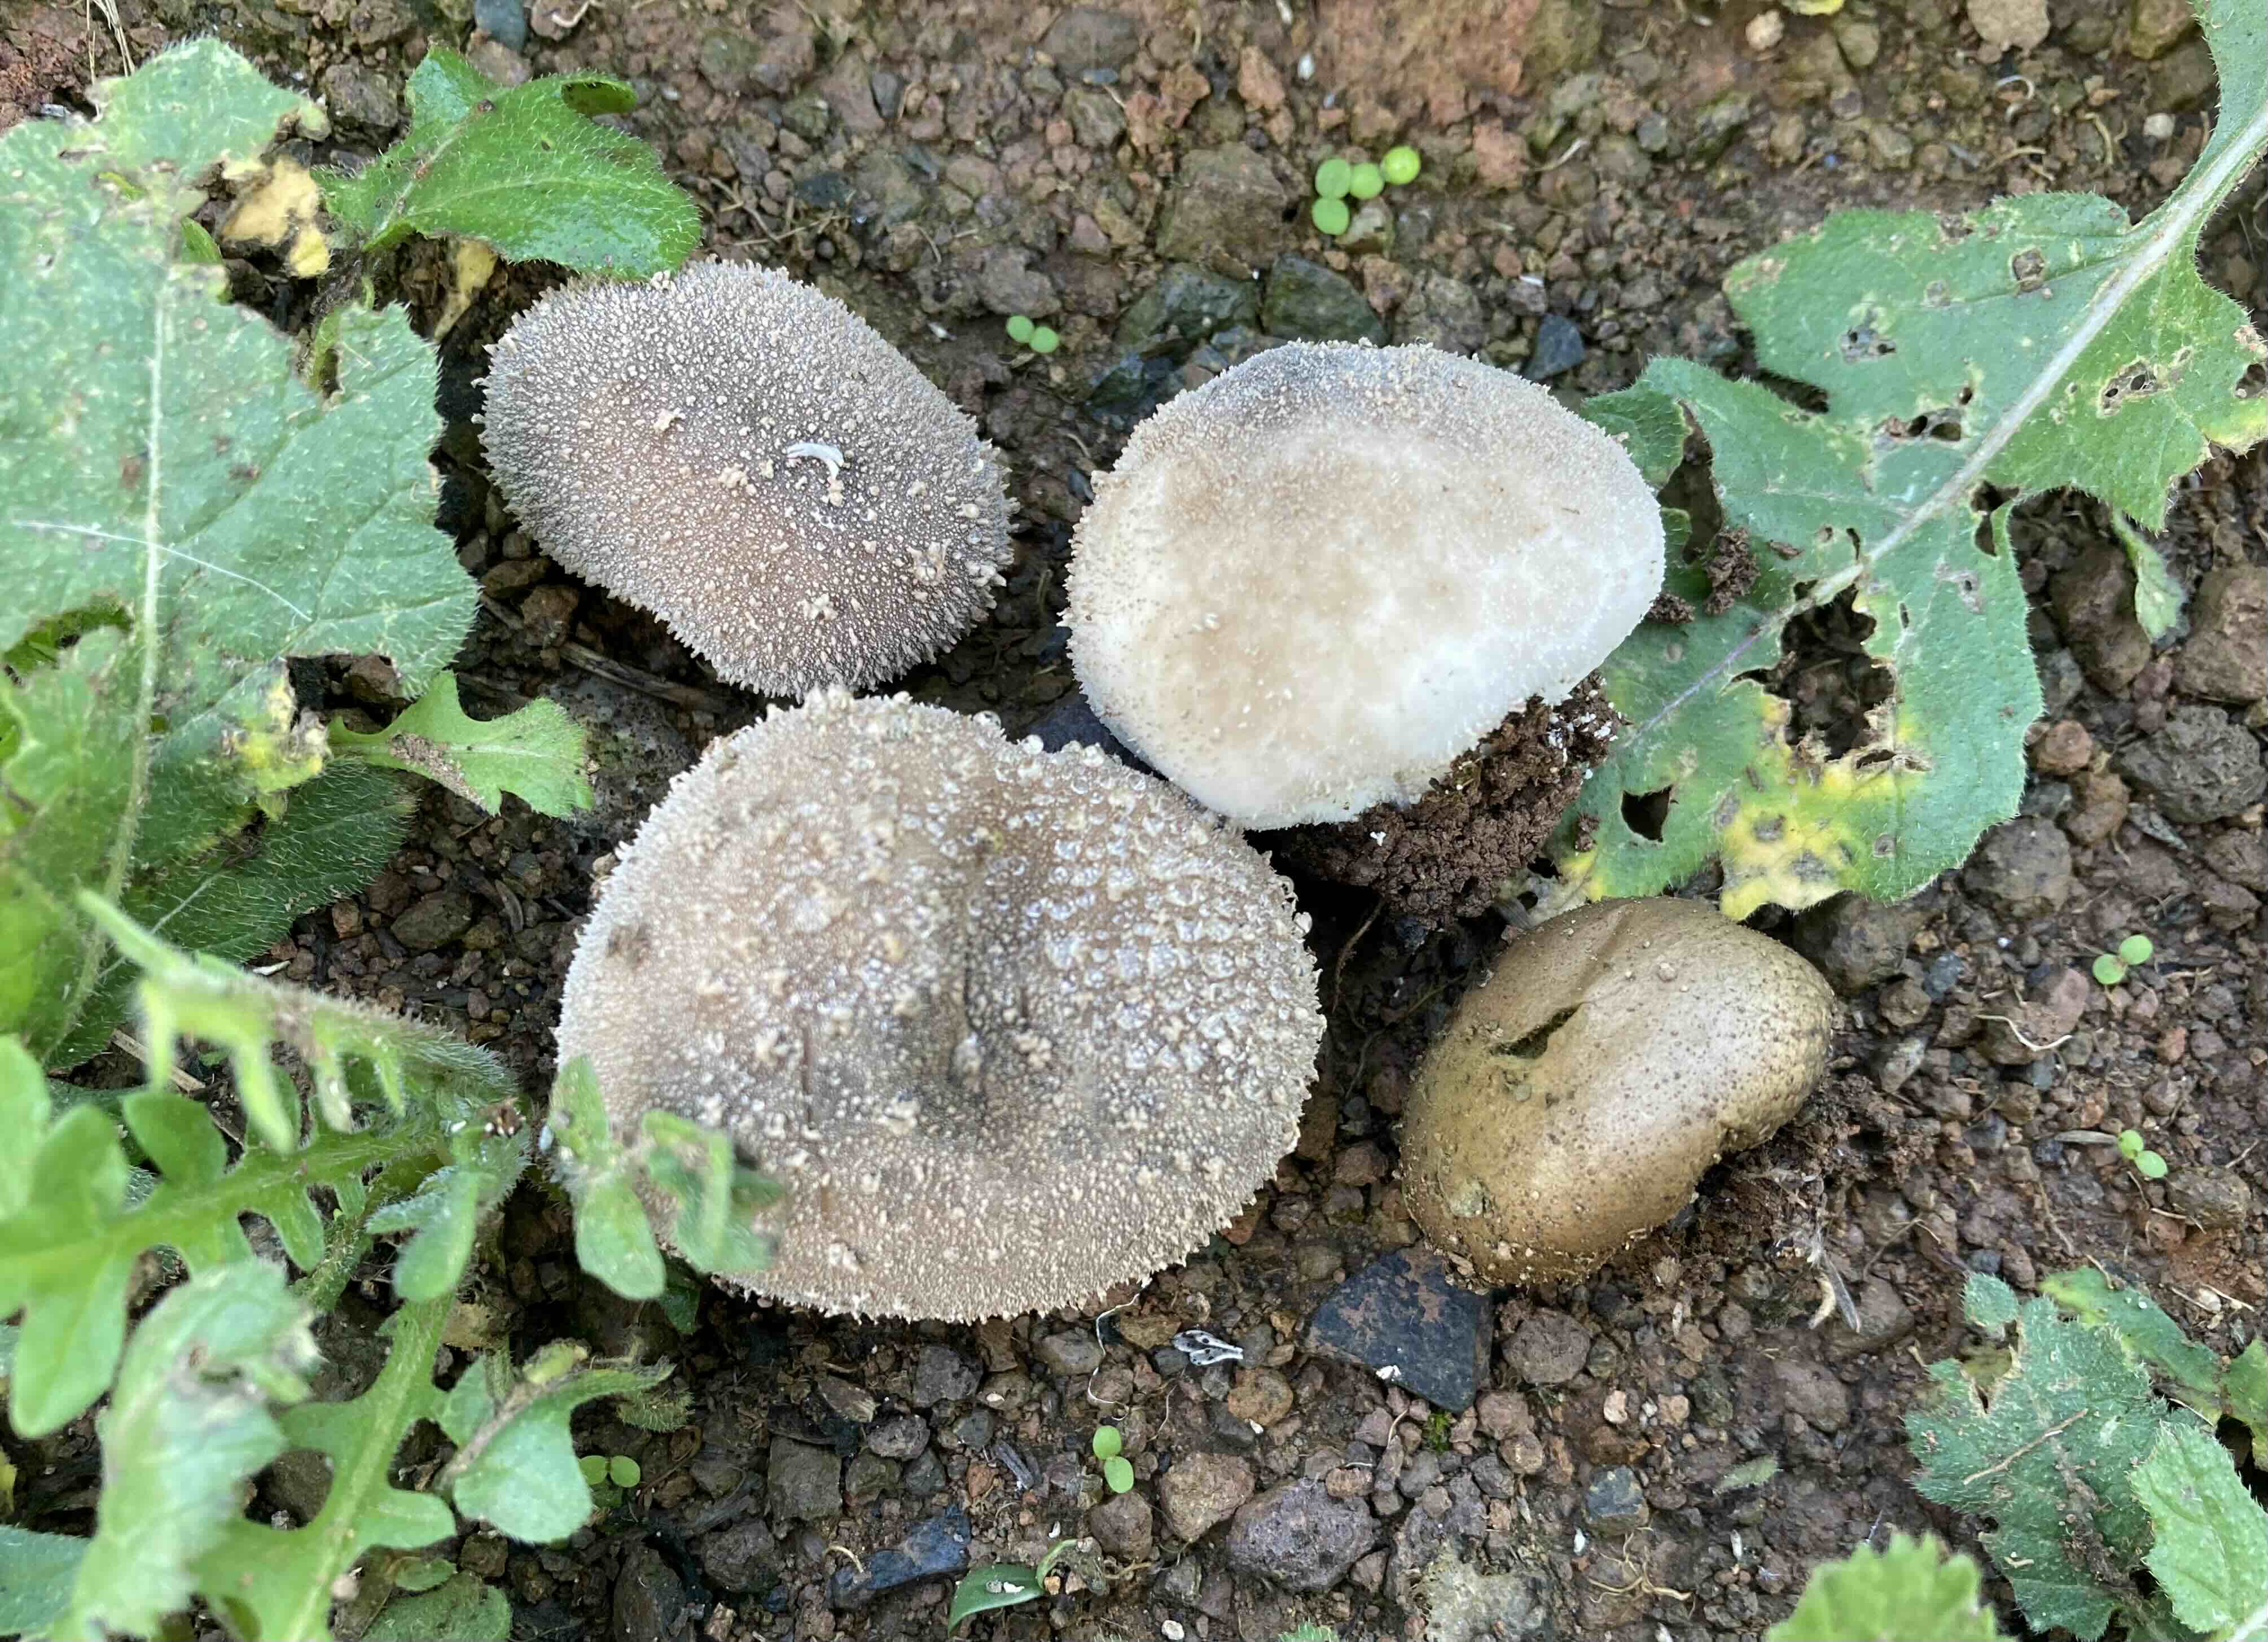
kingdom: Fungi
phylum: Basidiomycota
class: Agaricomycetes
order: Agaricales
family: Lycoperdaceae
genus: Lycoperdon
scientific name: Lycoperdon lambinonii
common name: læderbrun støvbold
